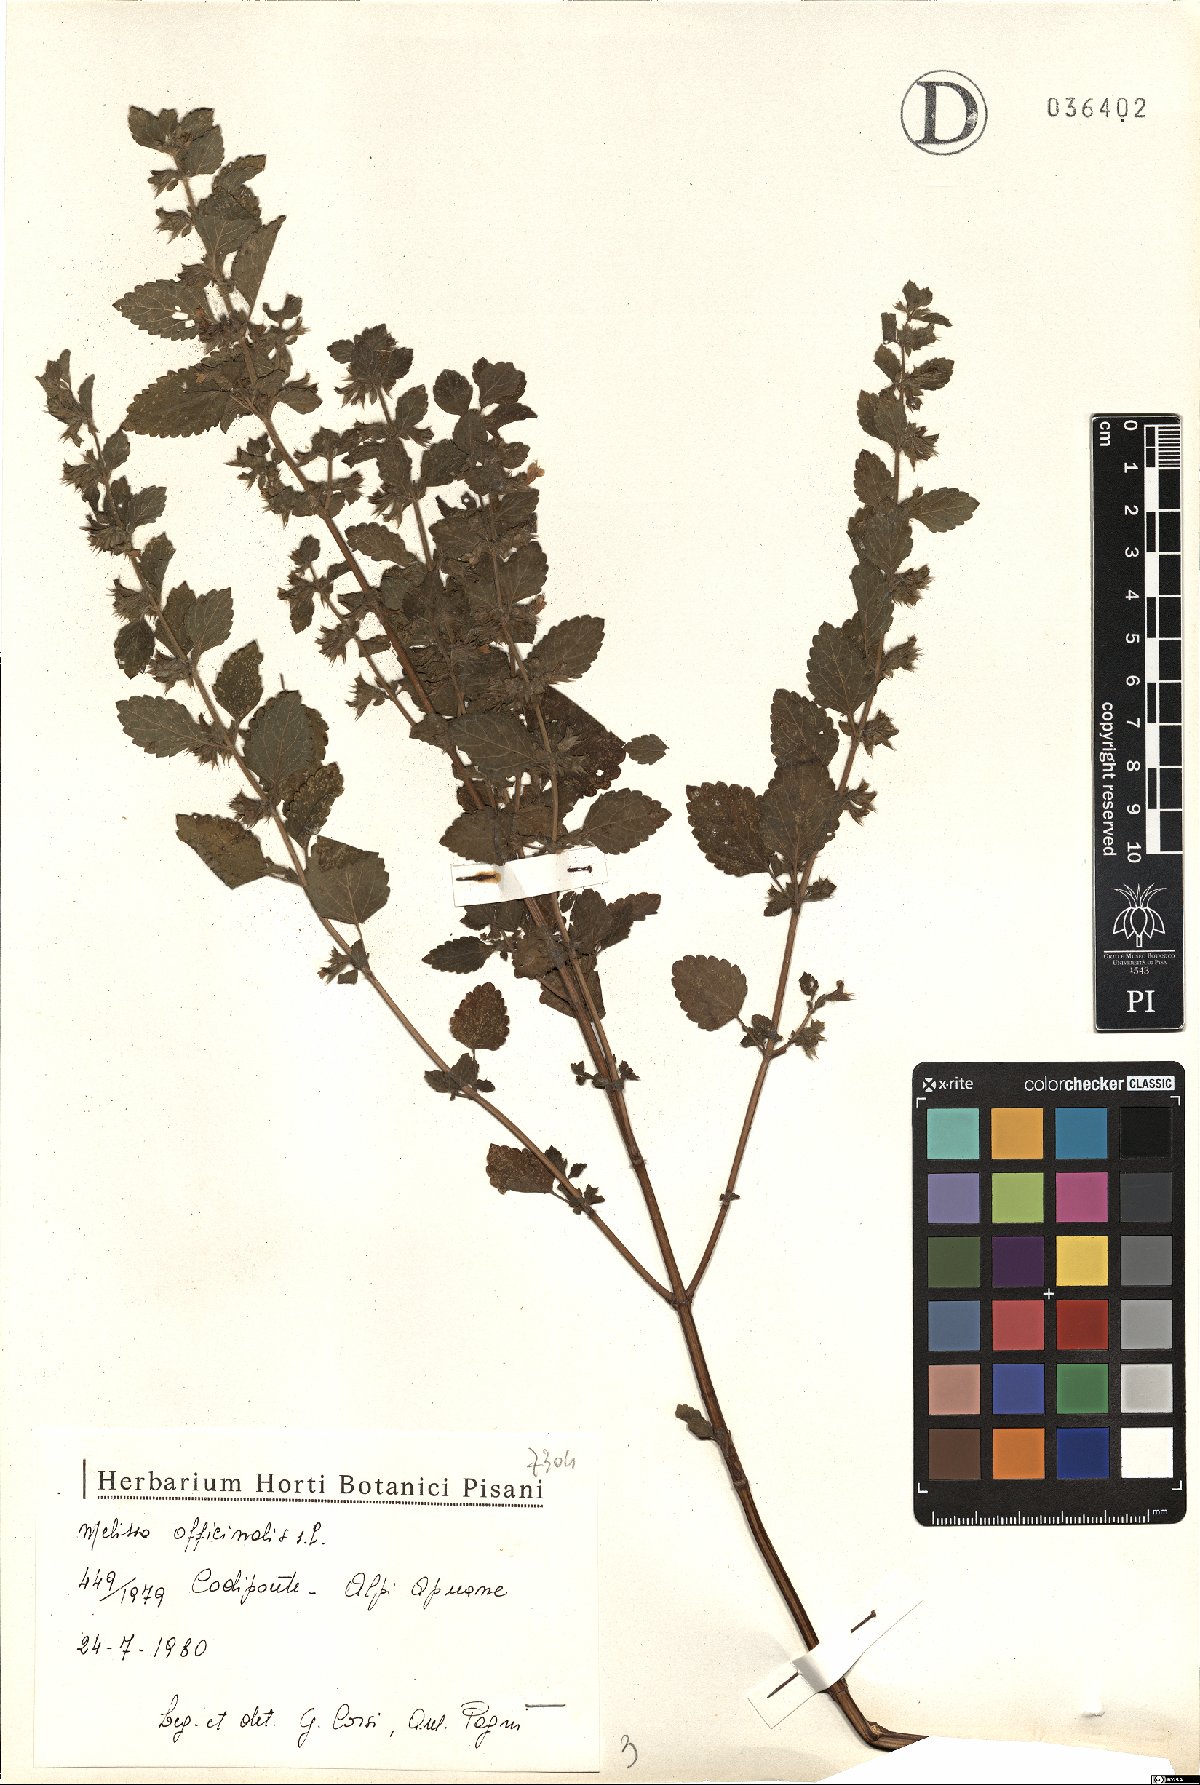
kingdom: Plantae
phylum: Tracheophyta
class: Magnoliopsida
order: Lamiales
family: Lamiaceae
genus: Melissa
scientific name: Melissa officinalis
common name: Balm
